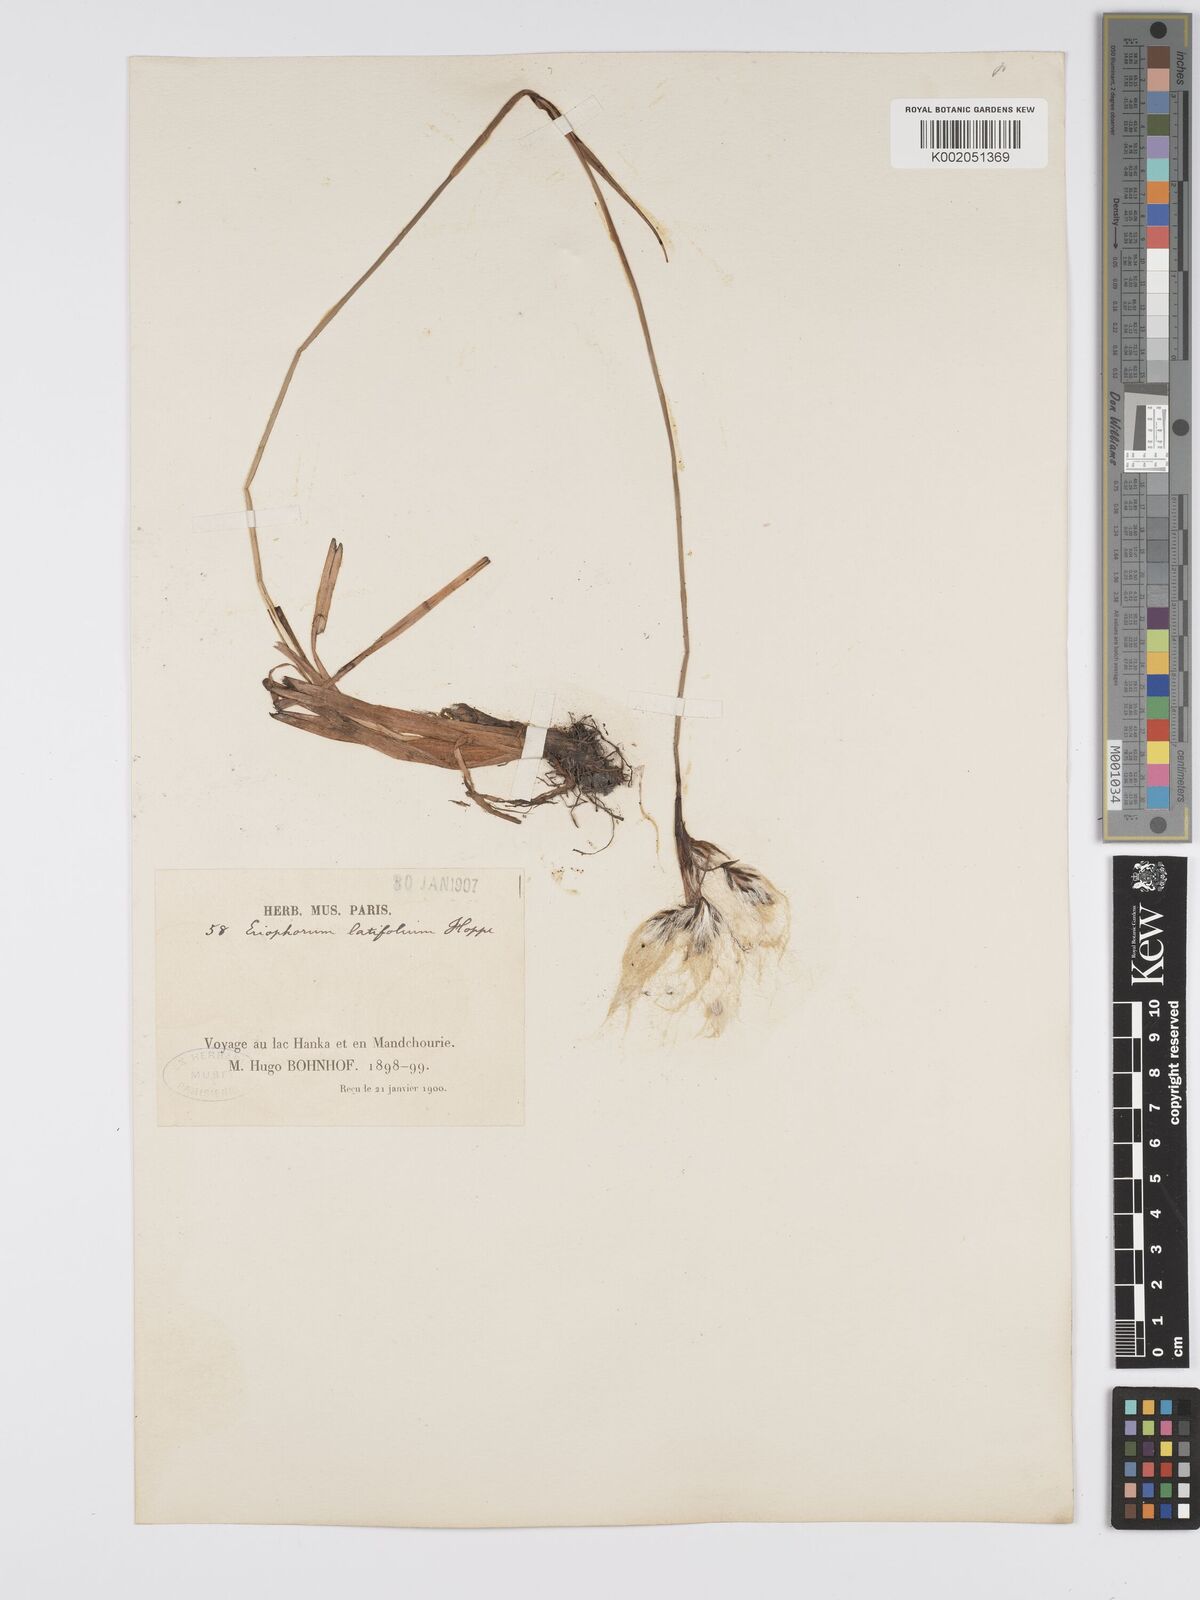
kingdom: Plantae
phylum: Tracheophyta
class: Liliopsida
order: Poales
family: Cyperaceae
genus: Eriophorum
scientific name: Eriophorum latifolium
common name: Broad-leaved cottongrass
